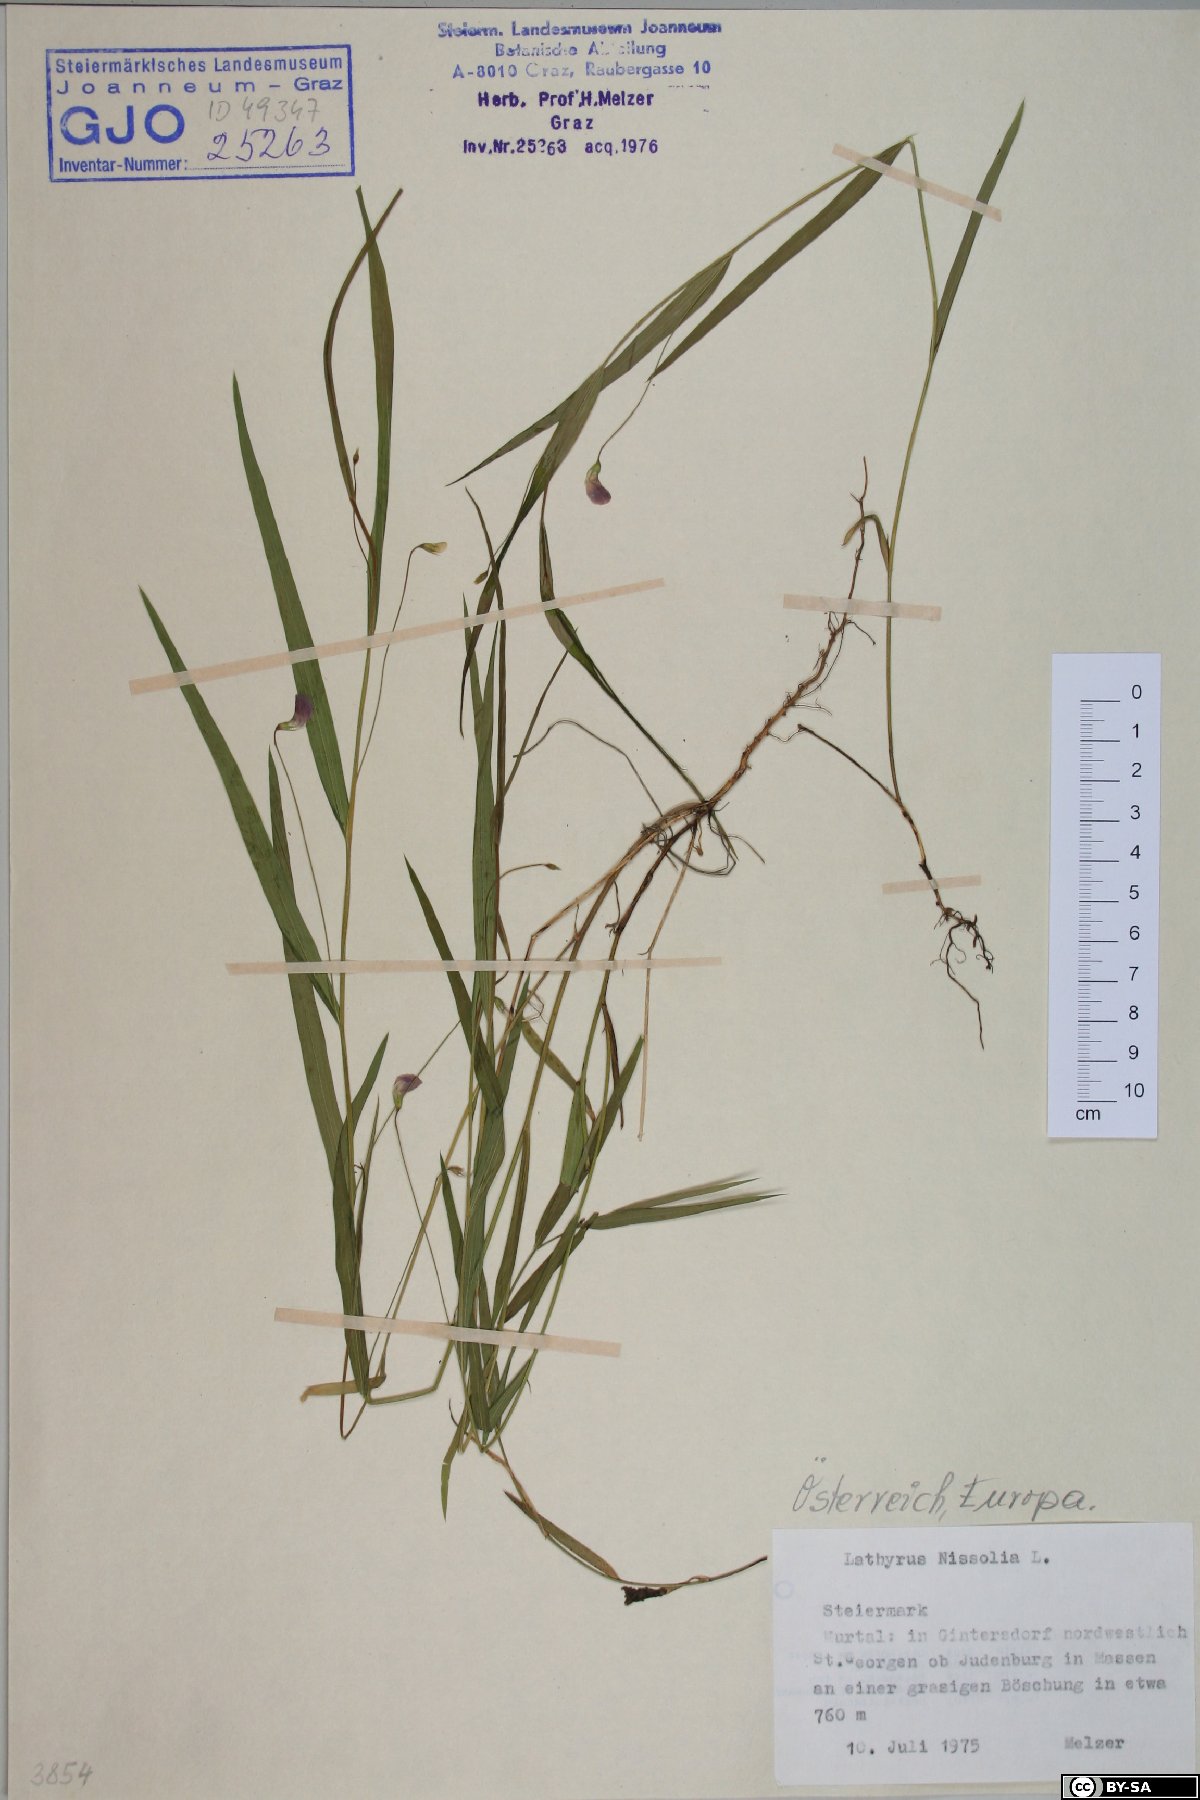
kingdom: Plantae
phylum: Tracheophyta
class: Magnoliopsida
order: Fabales
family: Fabaceae
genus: Lathyrus
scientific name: Lathyrus nissolia
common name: Grass vetchling
